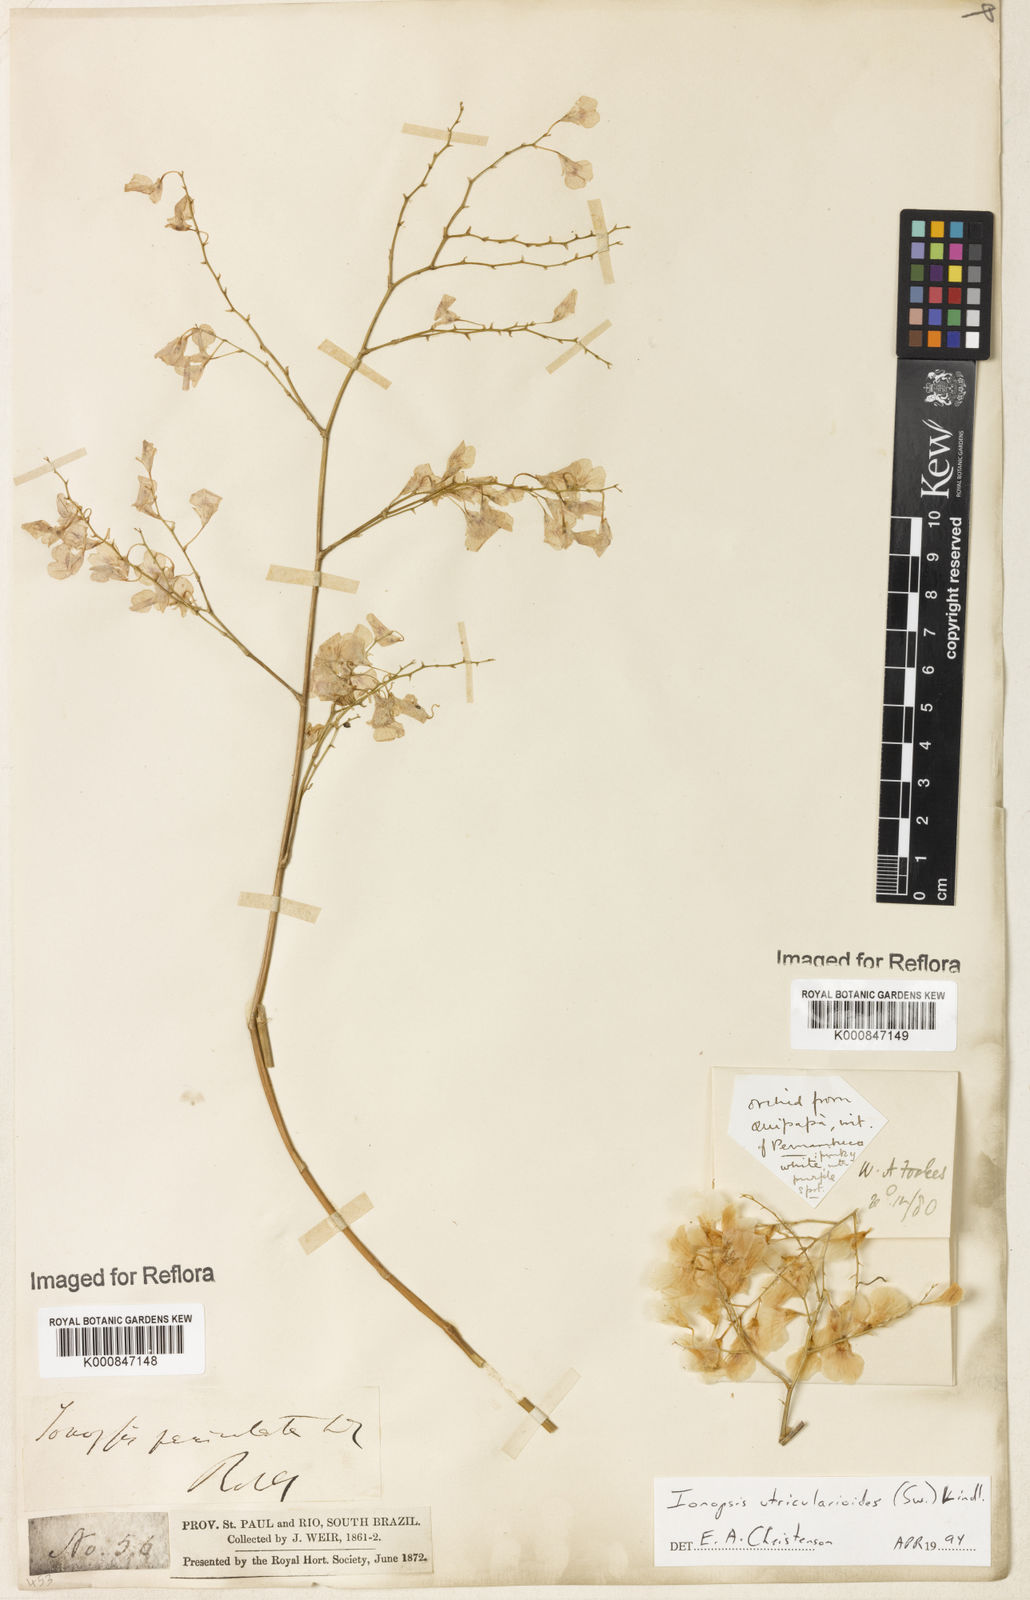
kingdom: Plantae
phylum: Tracheophyta
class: Liliopsida
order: Asparagales
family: Orchidaceae
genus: Ionopsis
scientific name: Ionopsis utricularioides
